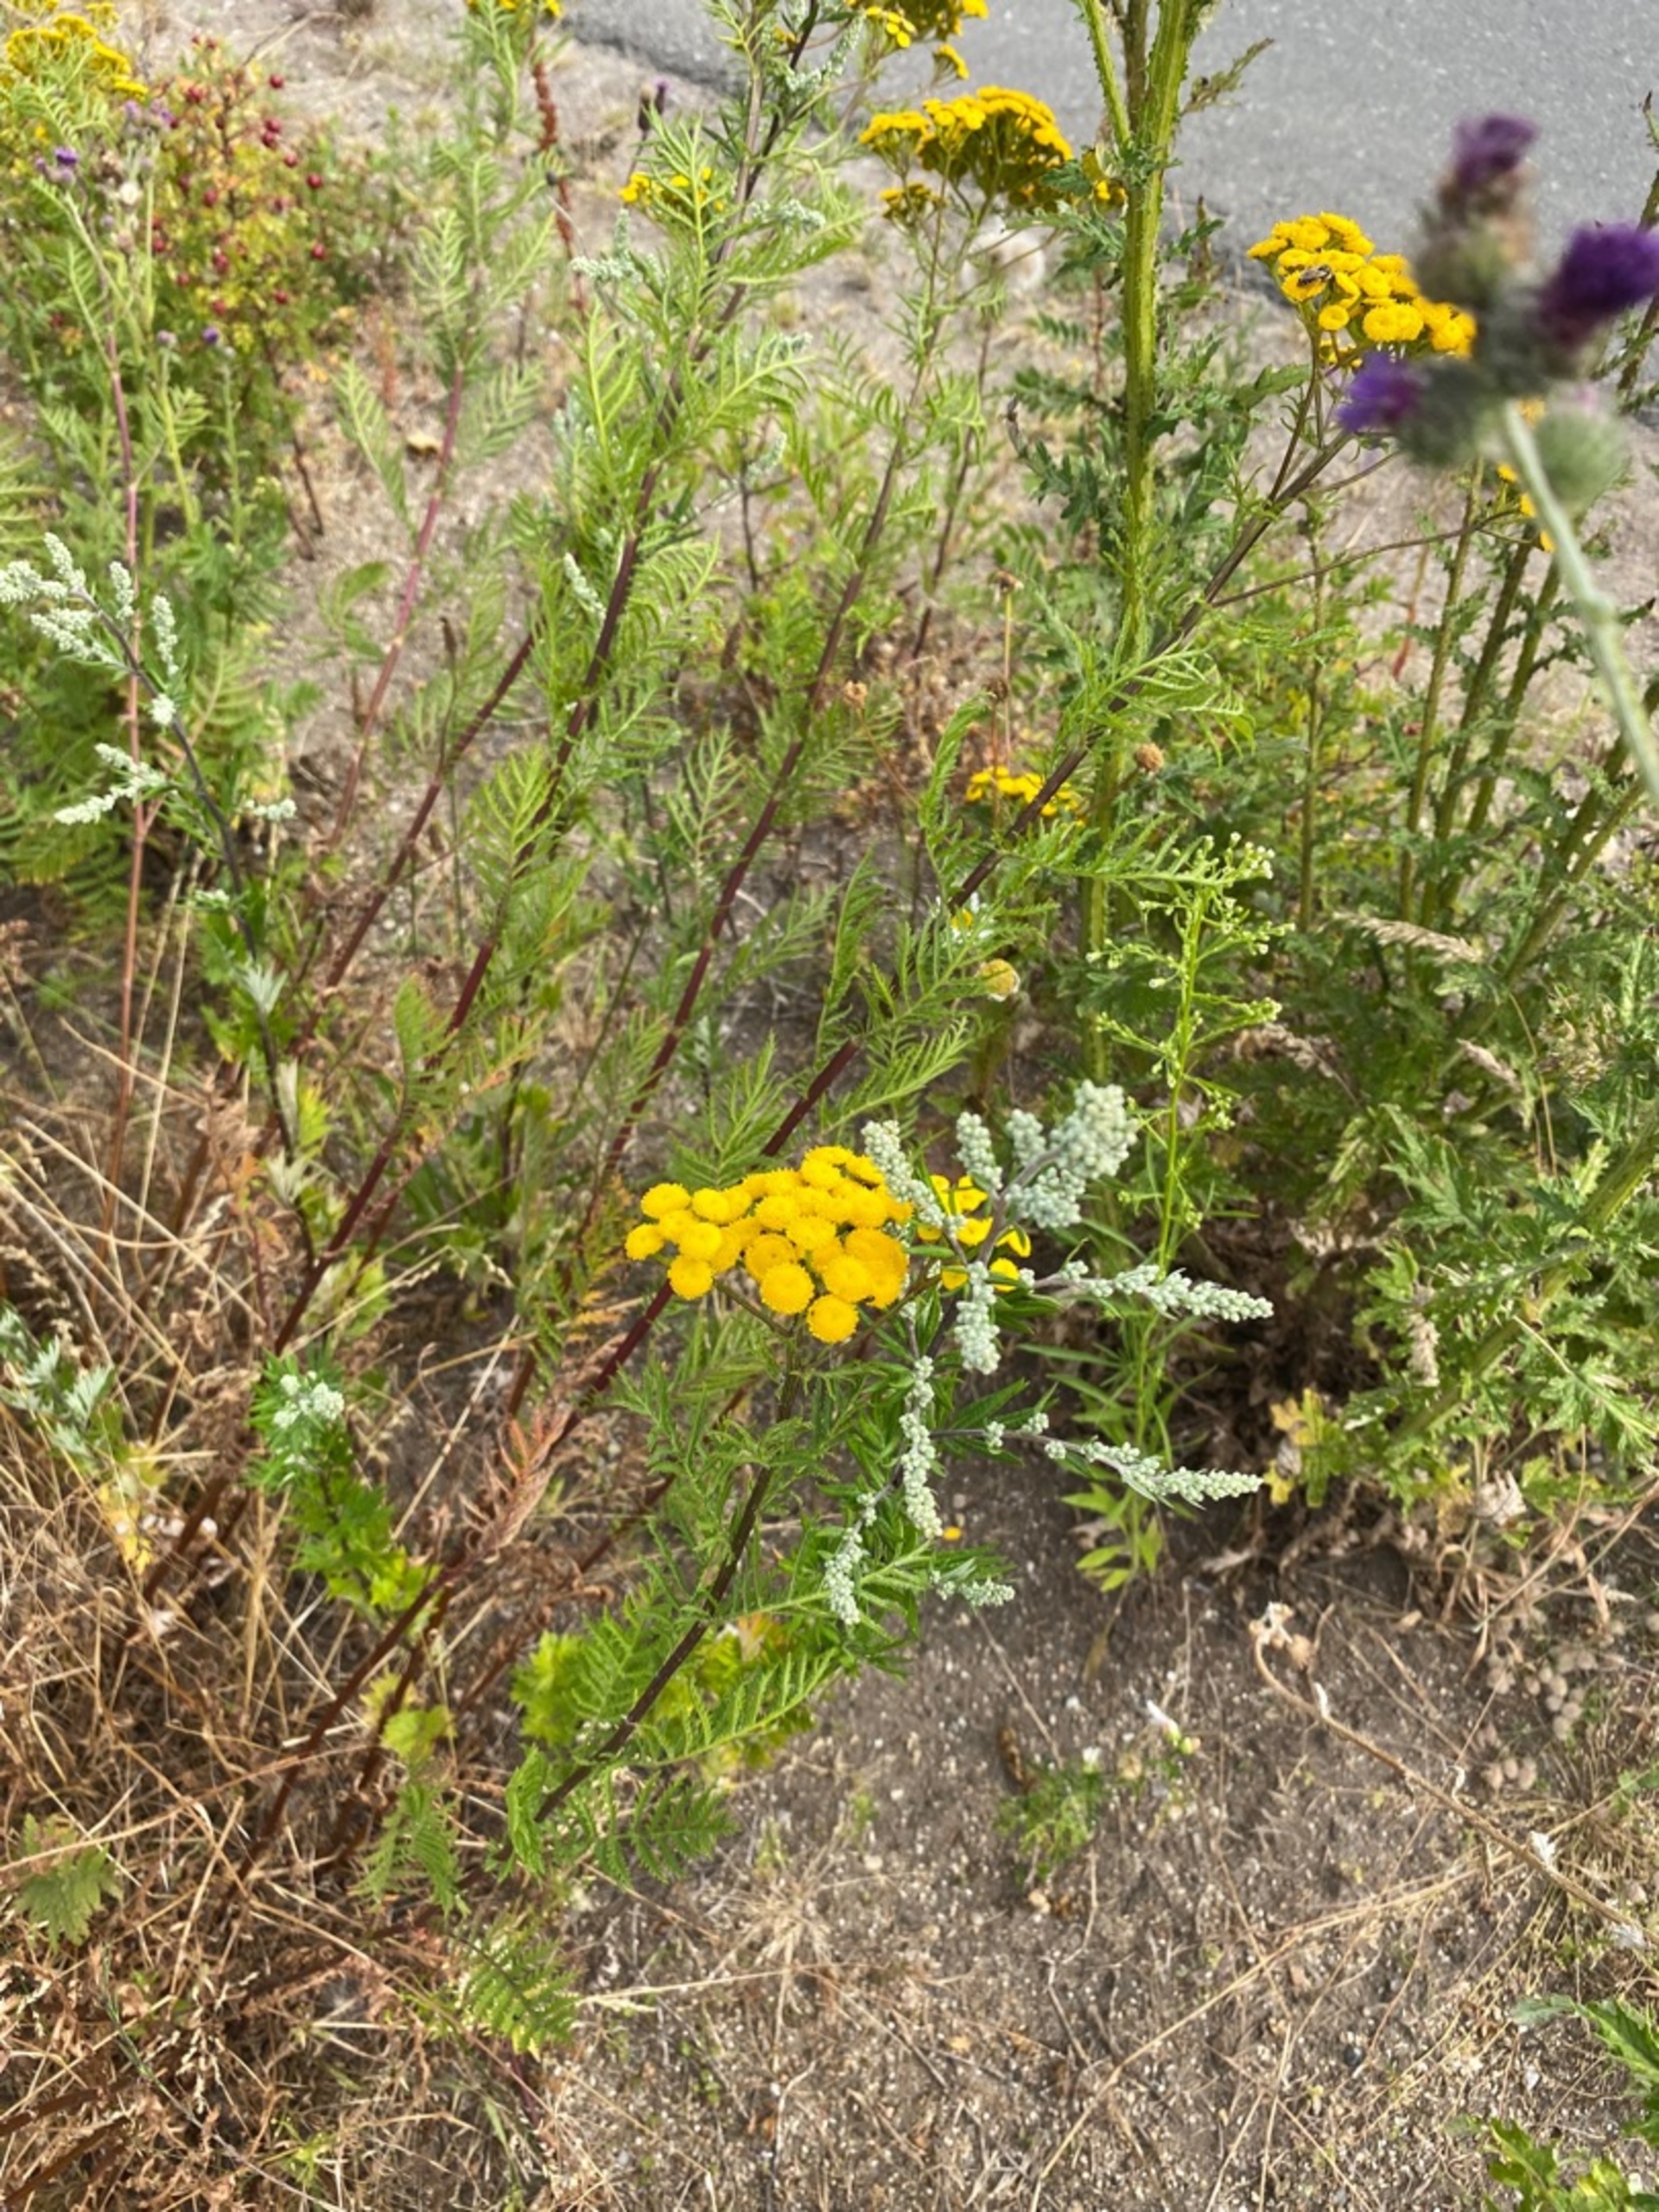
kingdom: Plantae
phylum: Tracheophyta
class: Magnoliopsida
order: Asterales
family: Asteraceae
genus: Jacobaea
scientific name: Jacobaea vulgaris
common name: Eng-brandbæger
